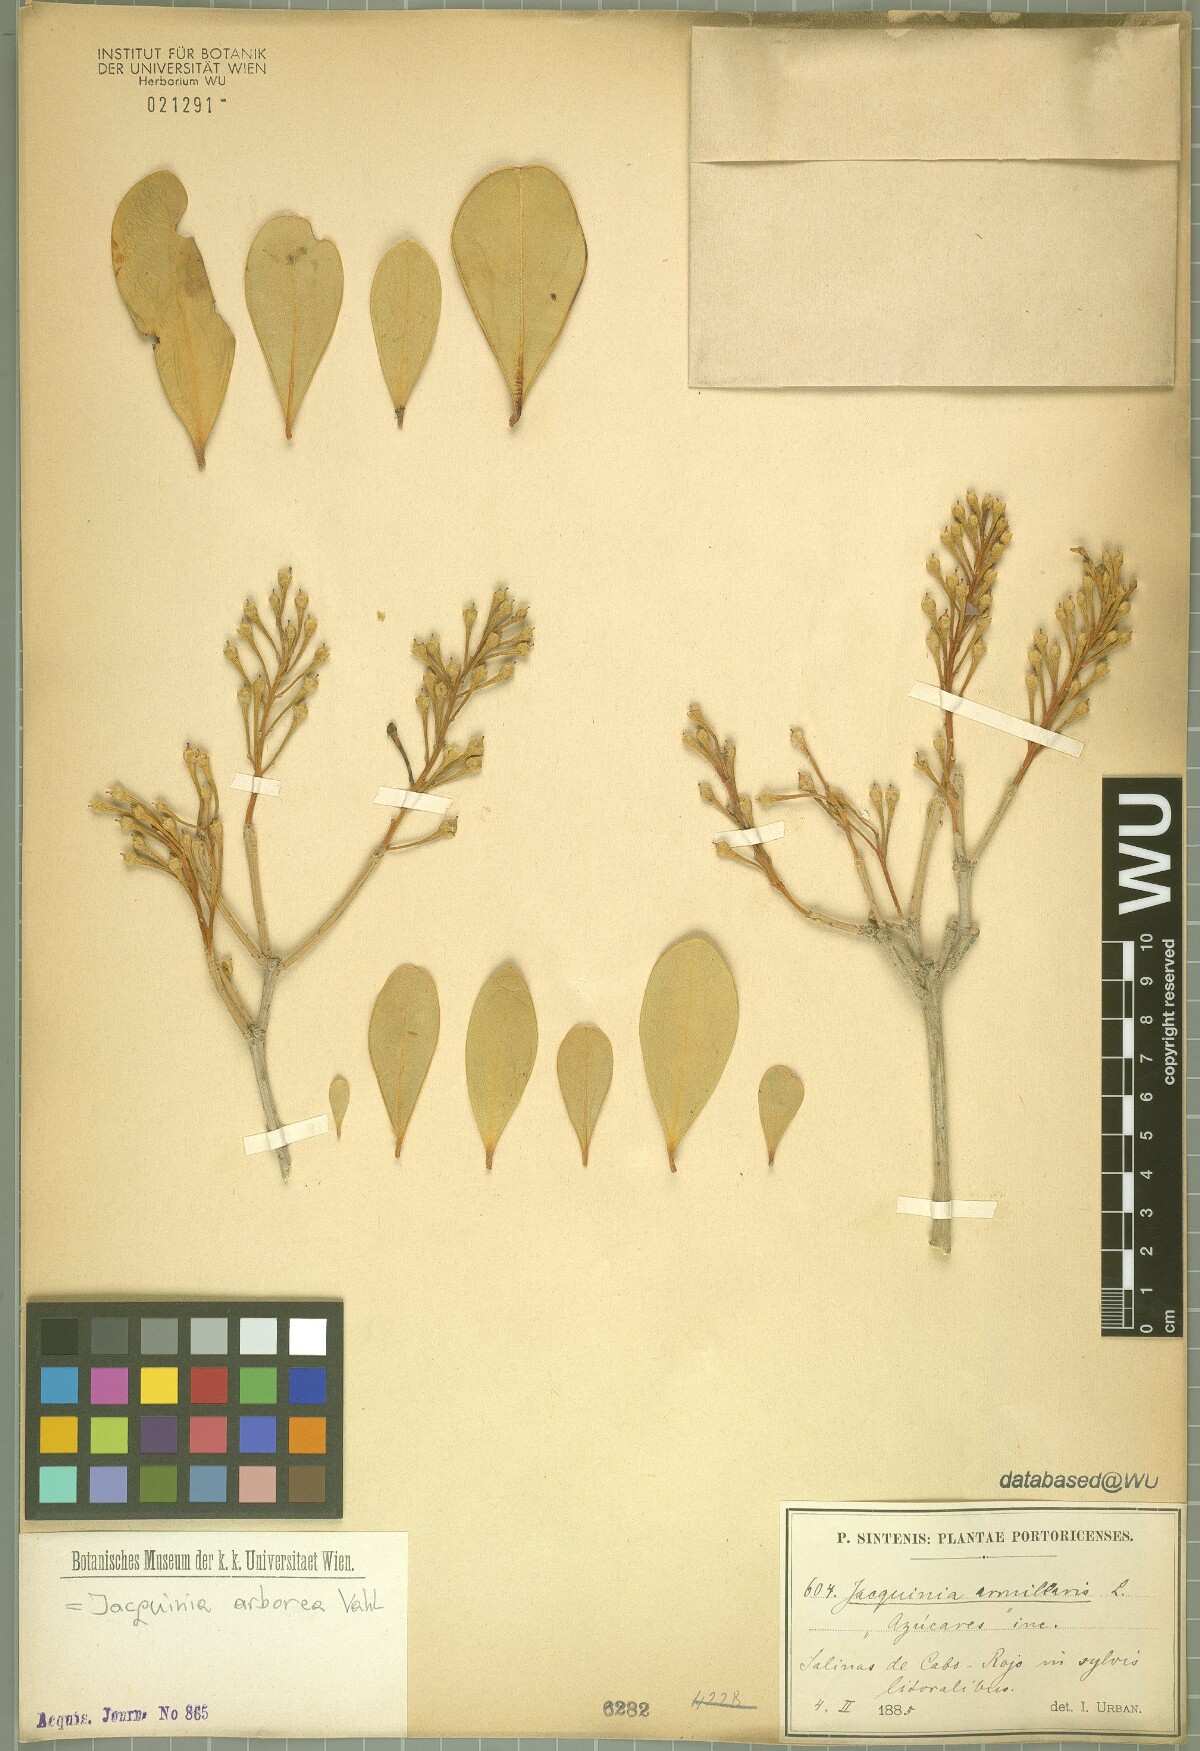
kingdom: Plantae
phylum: Tracheophyta
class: Magnoliopsida
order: Ericales
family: Primulaceae
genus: Jacquinia
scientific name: Jacquinia arborea
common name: Barceletwood
